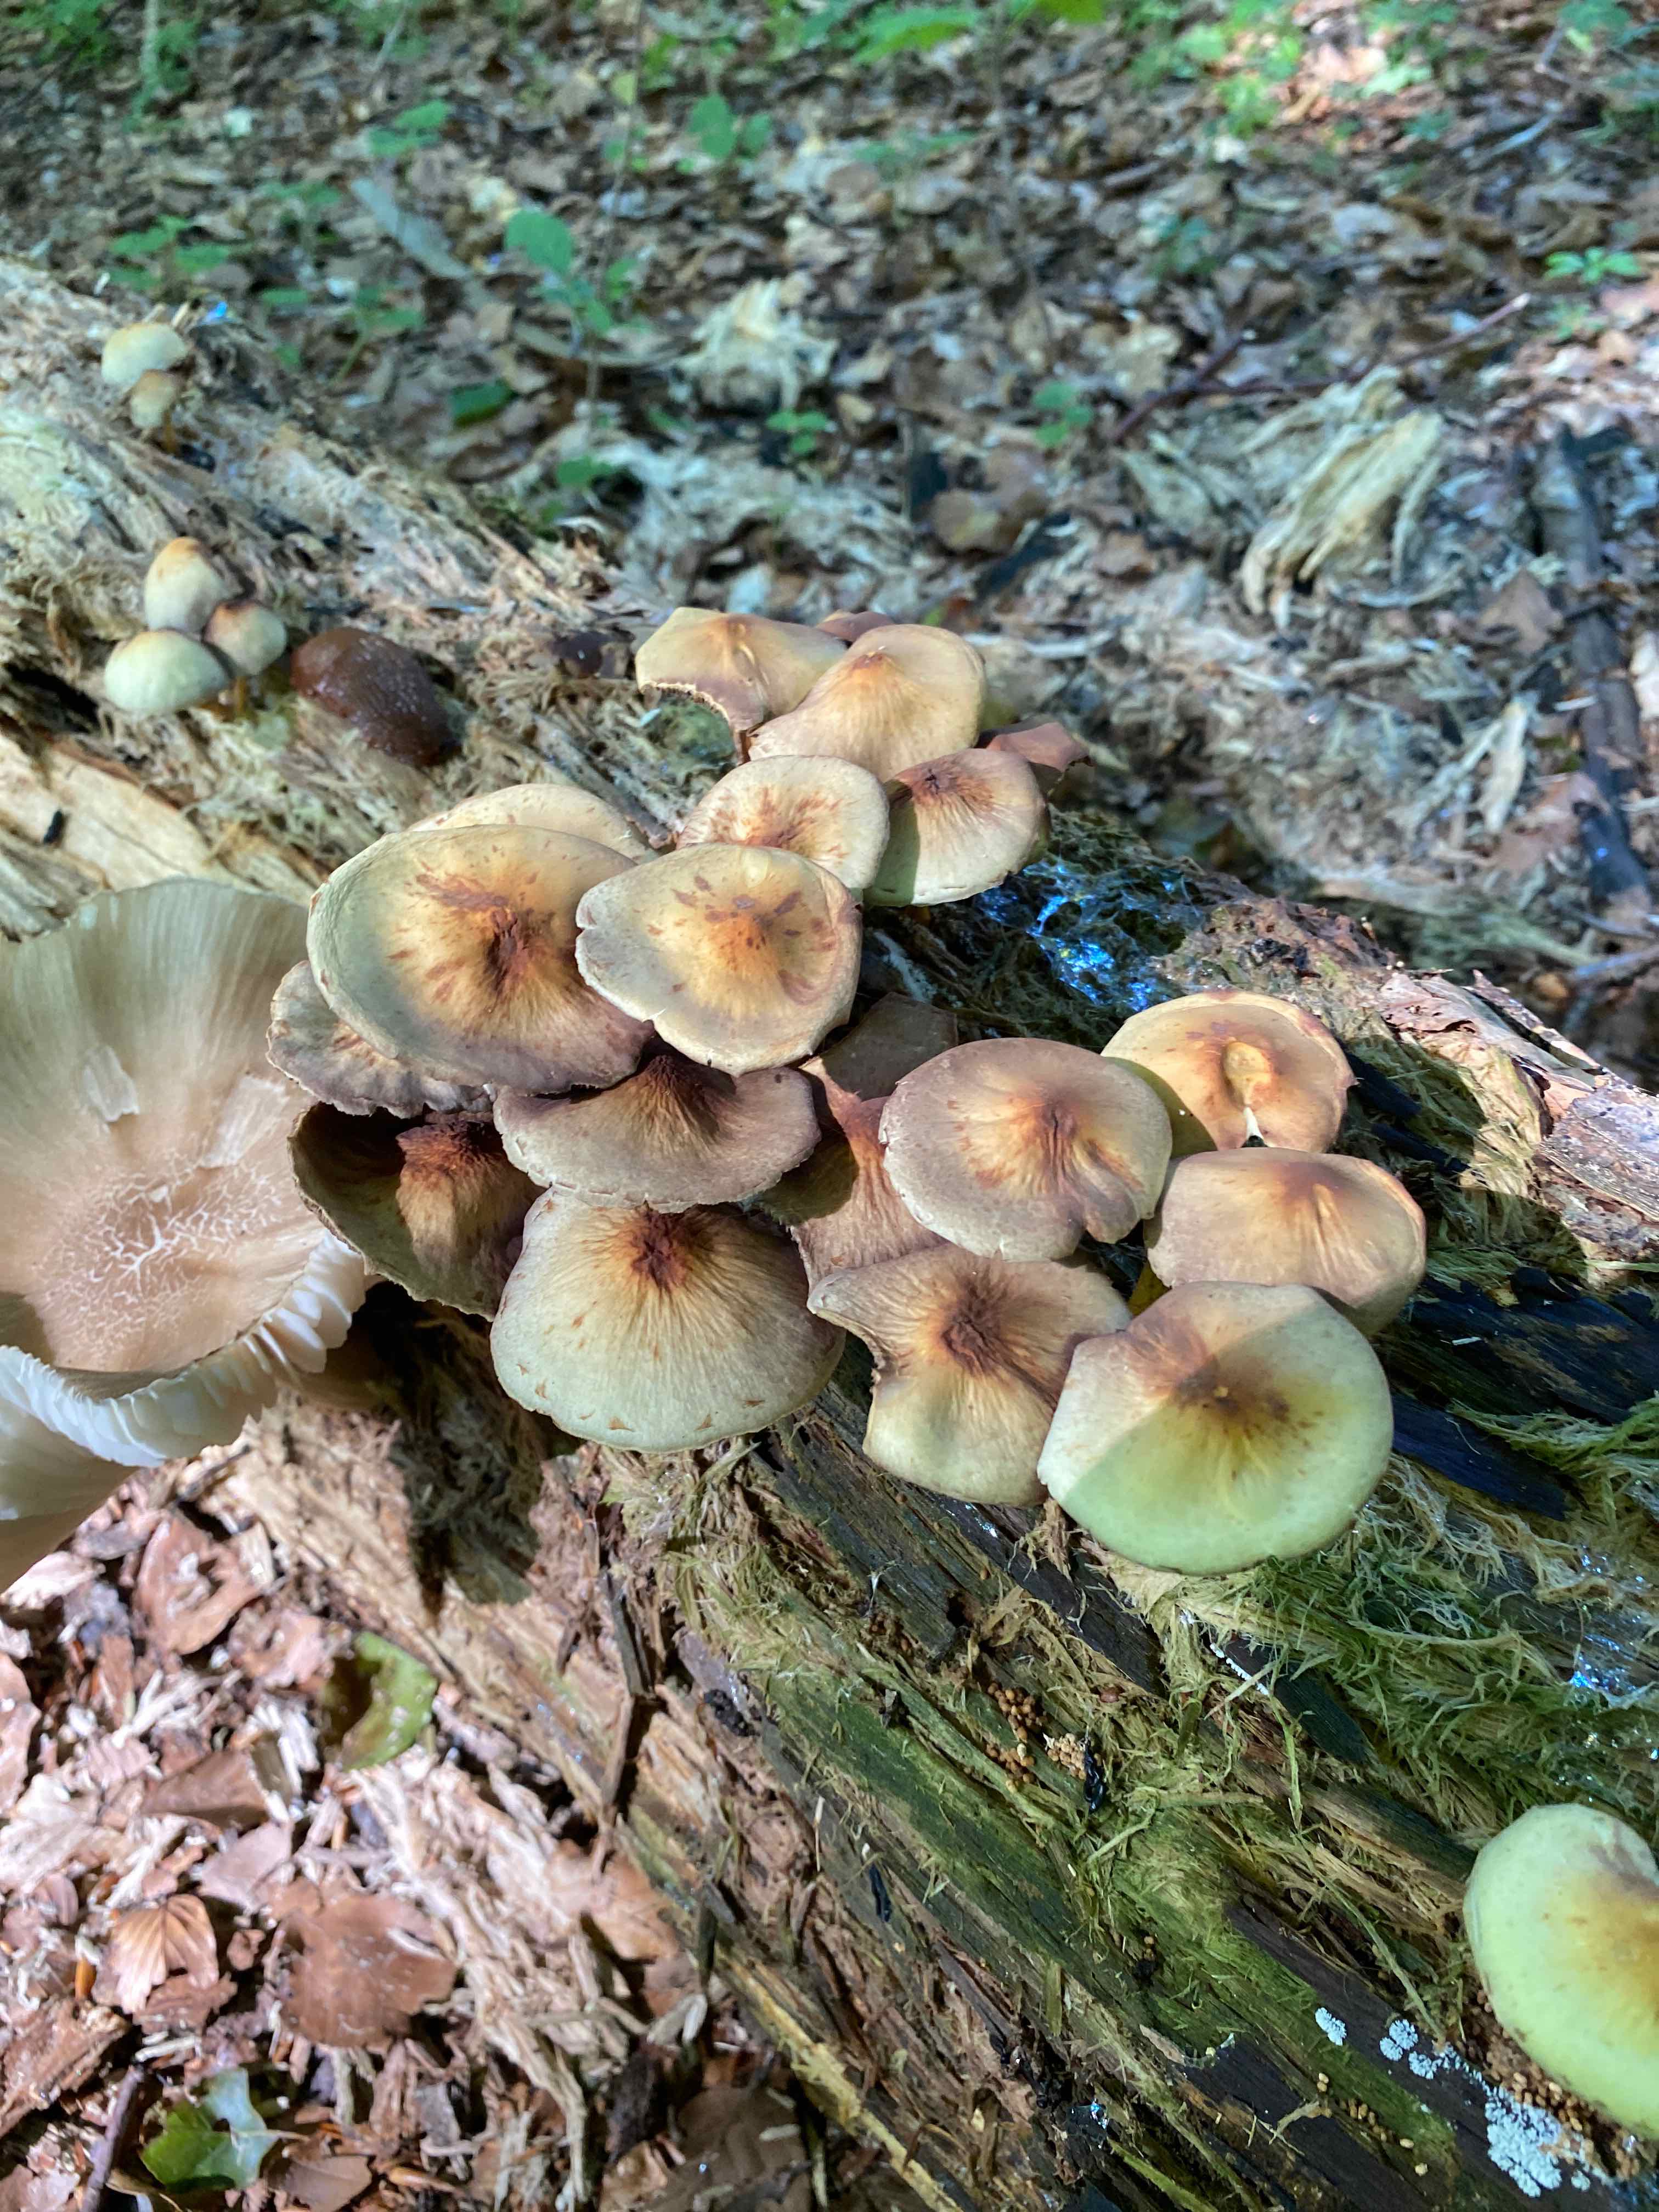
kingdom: Fungi
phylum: Basidiomycota
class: Agaricomycetes
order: Agaricales
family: Strophariaceae
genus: Hypholoma
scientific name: Hypholoma fasciculare
